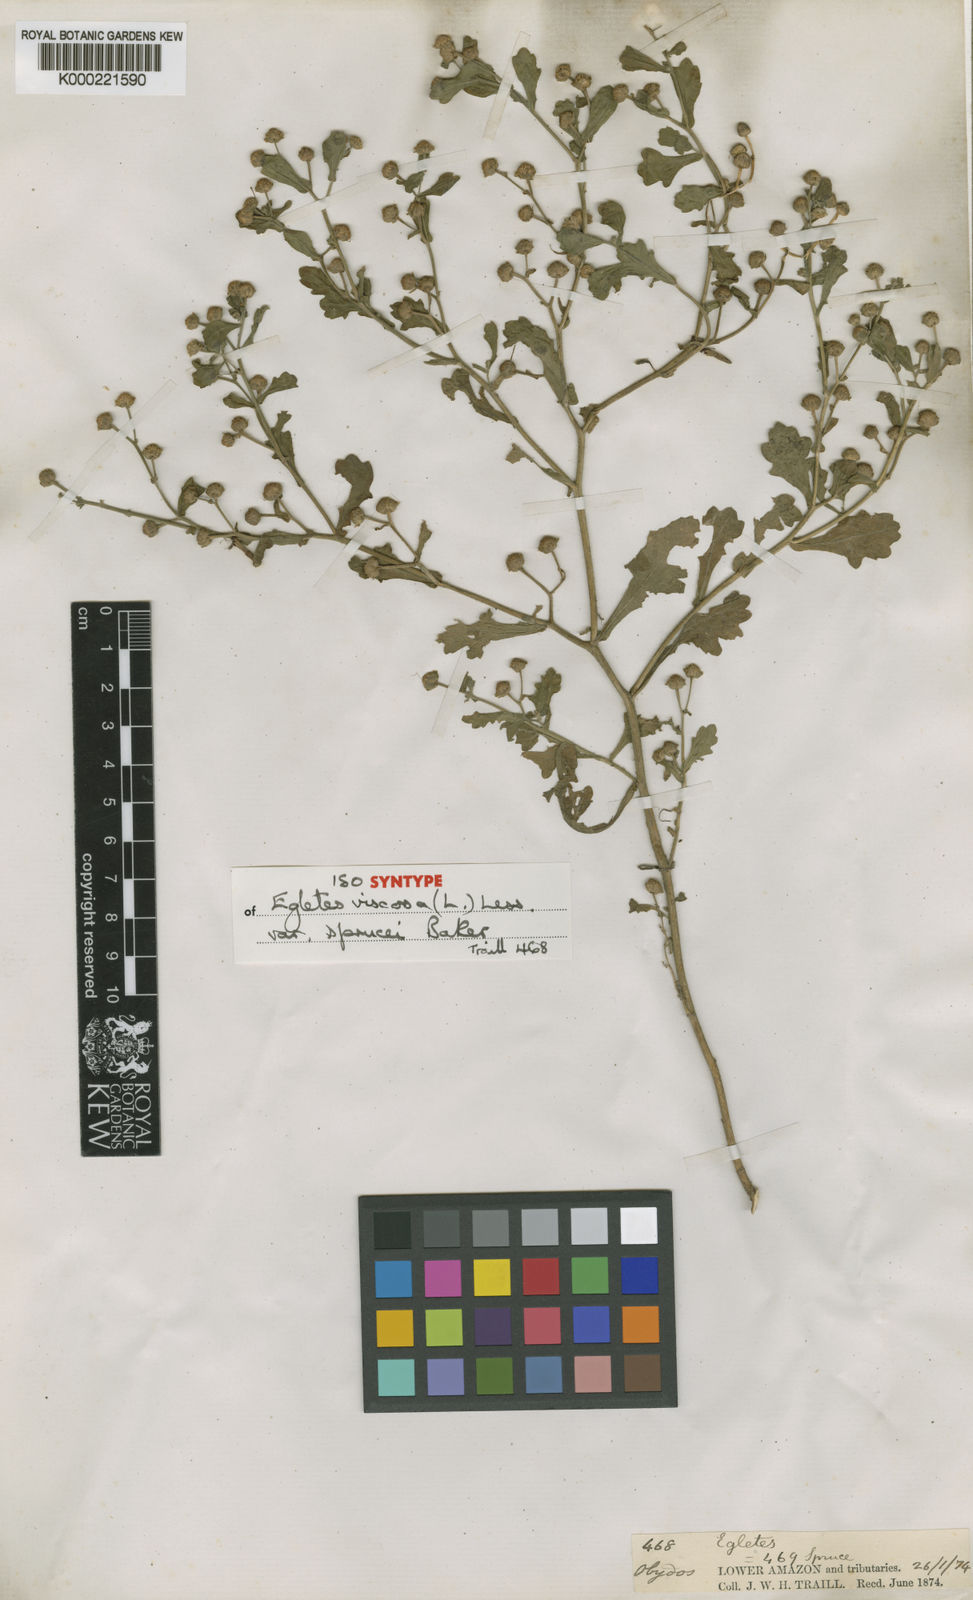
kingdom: Plantae
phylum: Tracheophyta
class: Magnoliopsida
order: Asterales
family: Asteraceae
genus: Egletes
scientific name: Egletes viscosa
